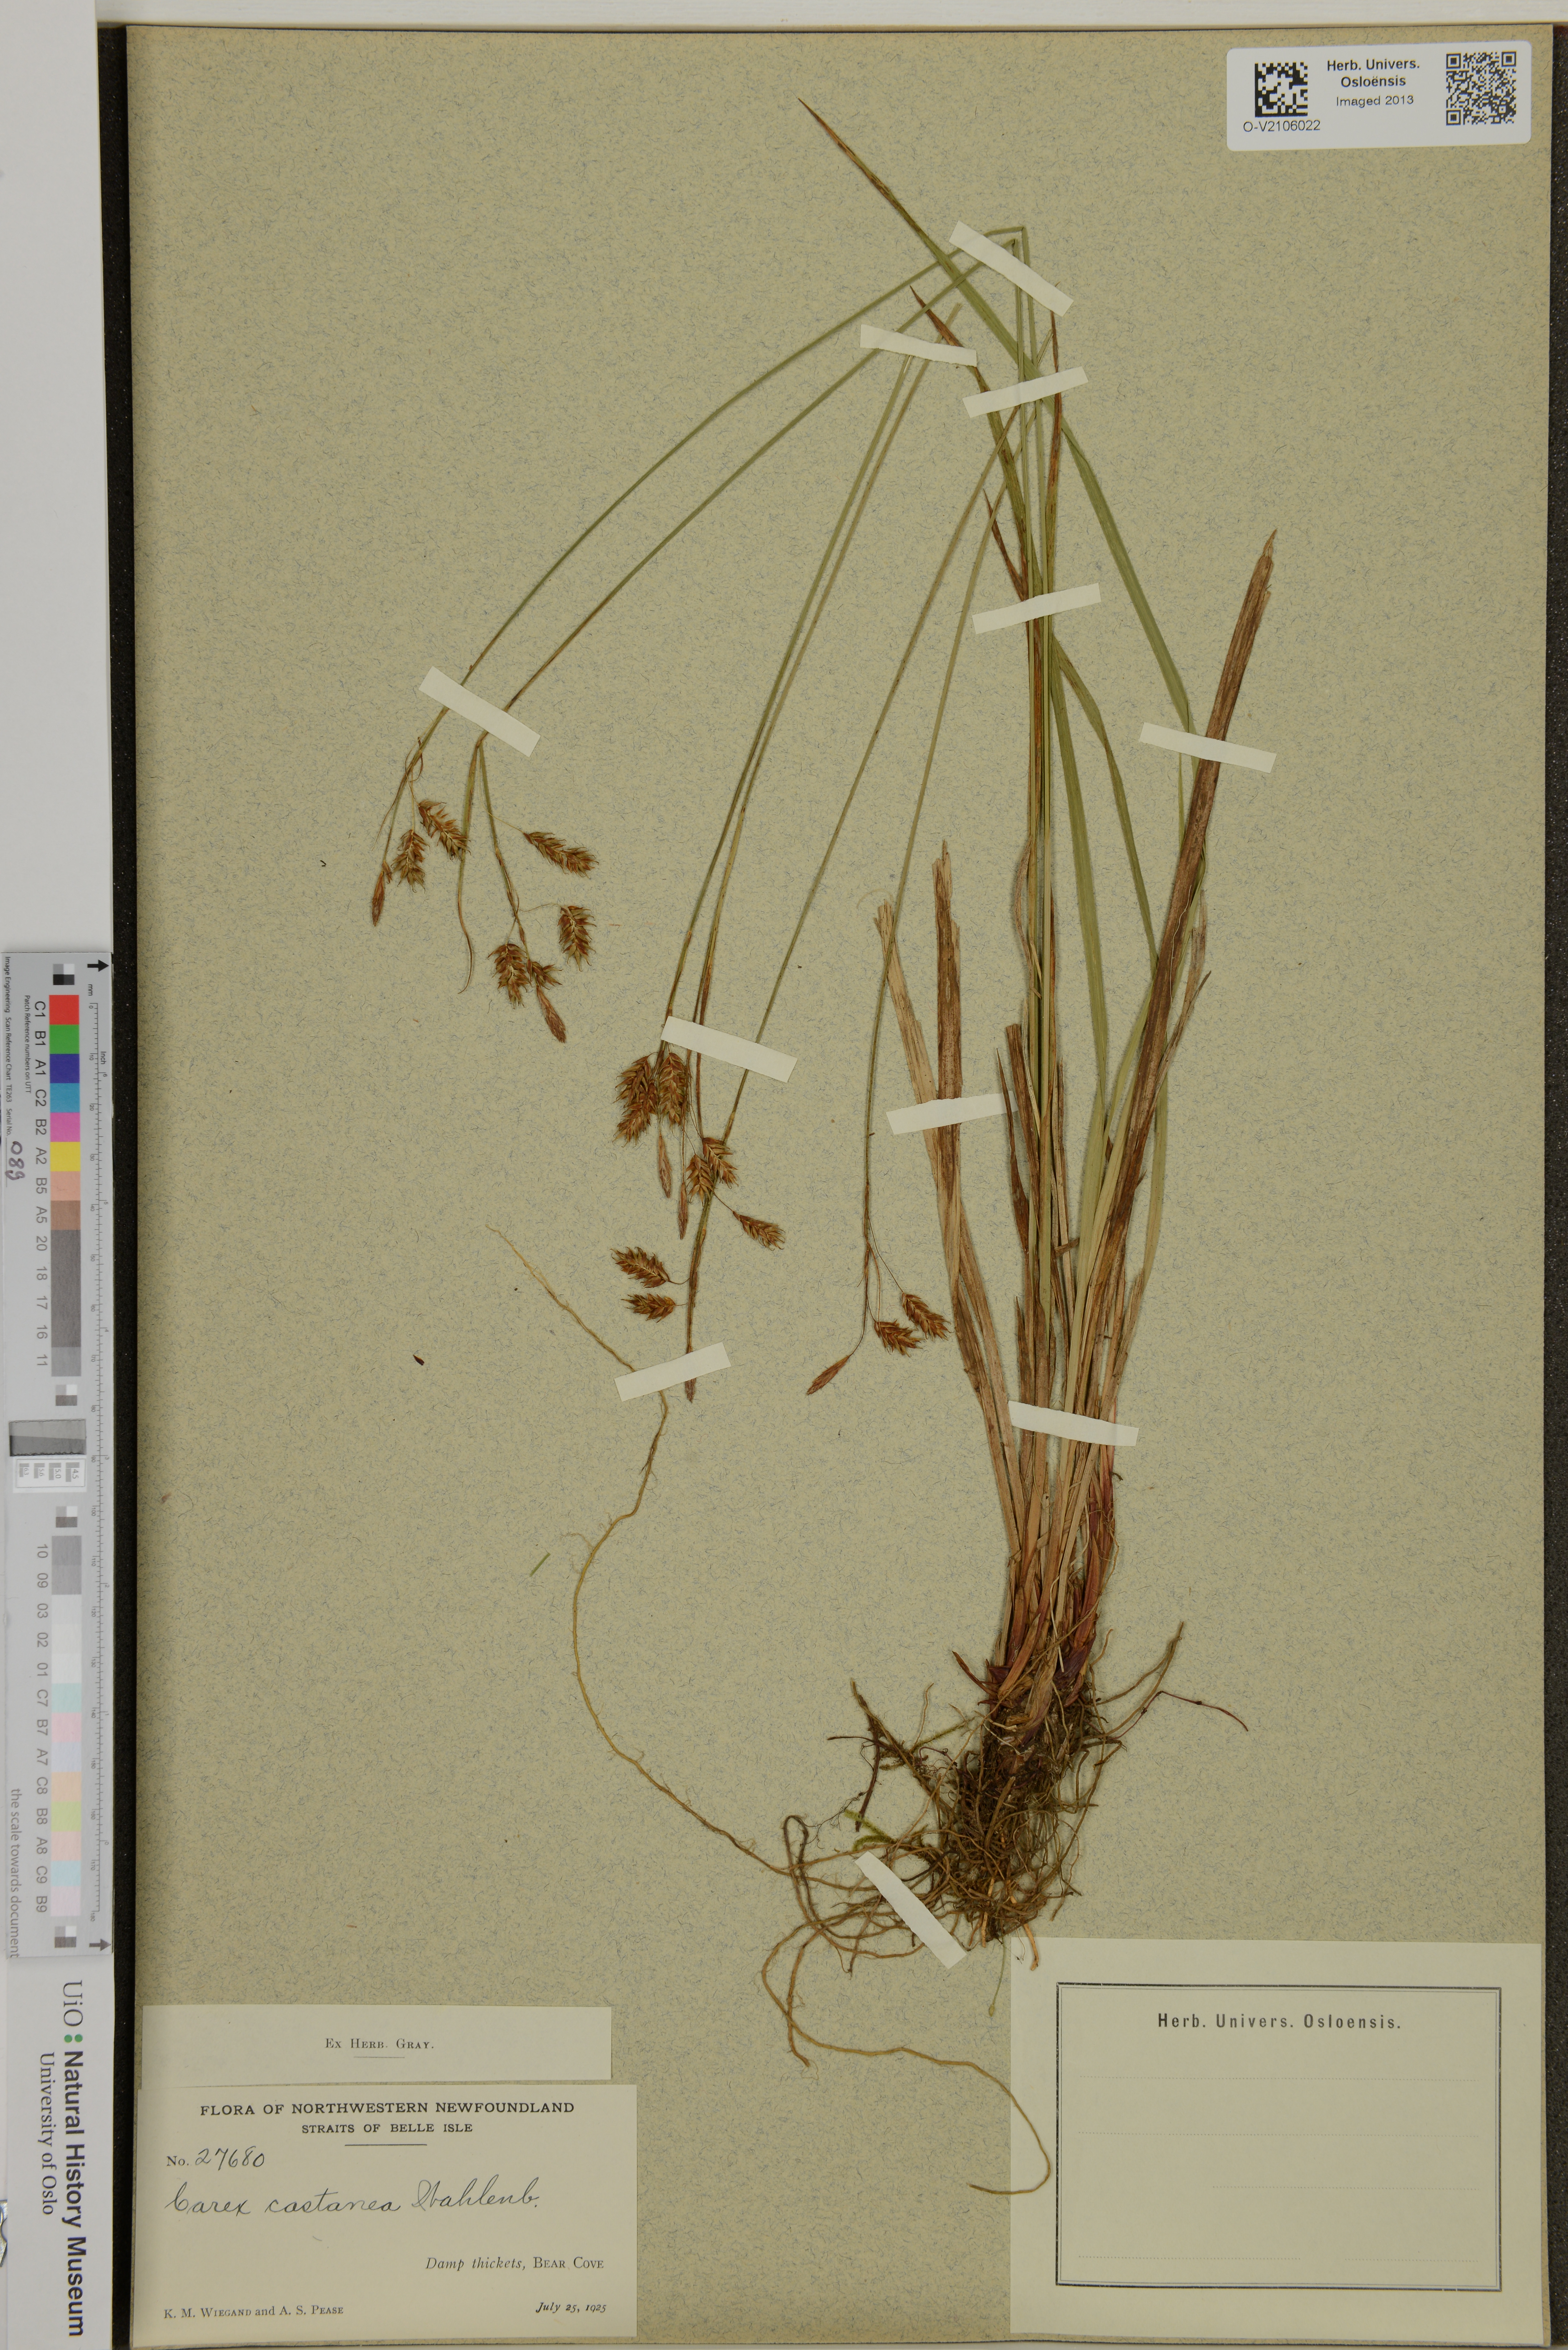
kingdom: Plantae
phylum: Tracheophyta
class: Liliopsida
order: Poales
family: Cyperaceae
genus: Carex
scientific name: Carex castanea
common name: Chestnut sedge
